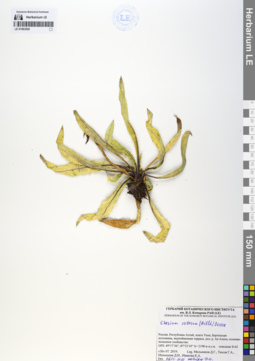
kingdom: Plantae
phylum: Tracheophyta
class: Magnoliopsida
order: Asterales
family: Asteraceae
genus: Cirsium
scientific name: Cirsium arvense
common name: Creeping thistle
